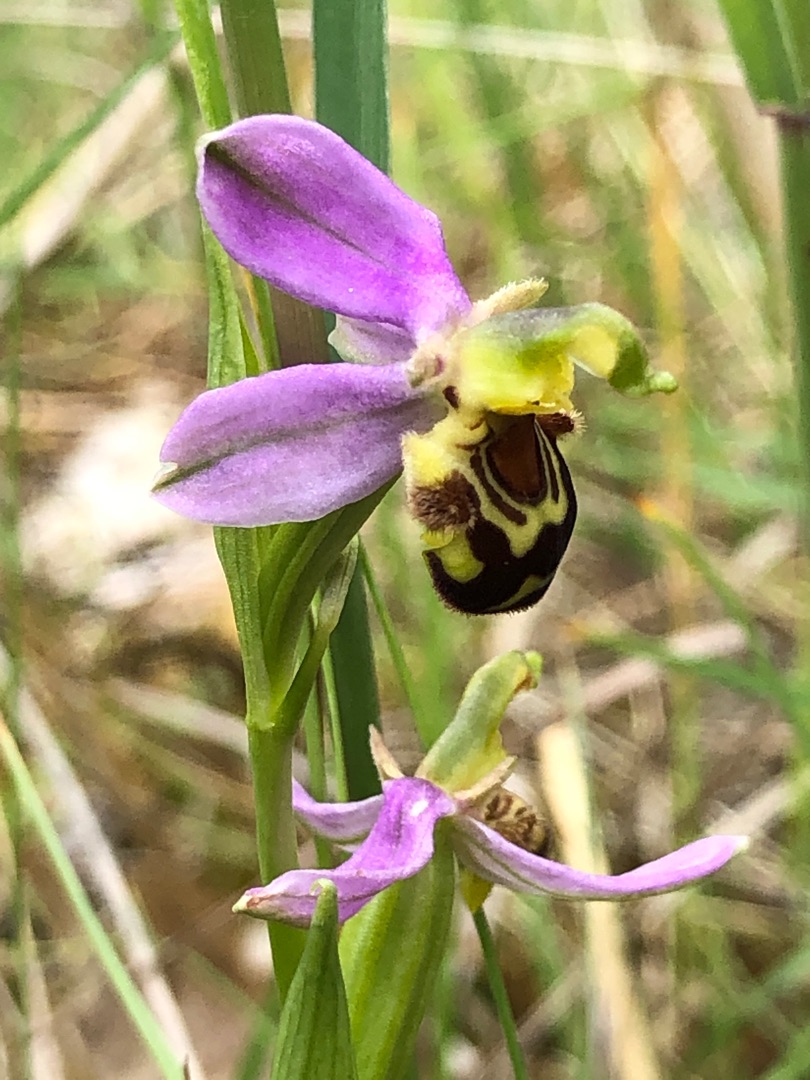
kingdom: Plantae
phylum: Tracheophyta
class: Liliopsida
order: Asparagales
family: Orchidaceae
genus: Ophrys
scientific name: Ophrys apifera
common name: Biblomst
